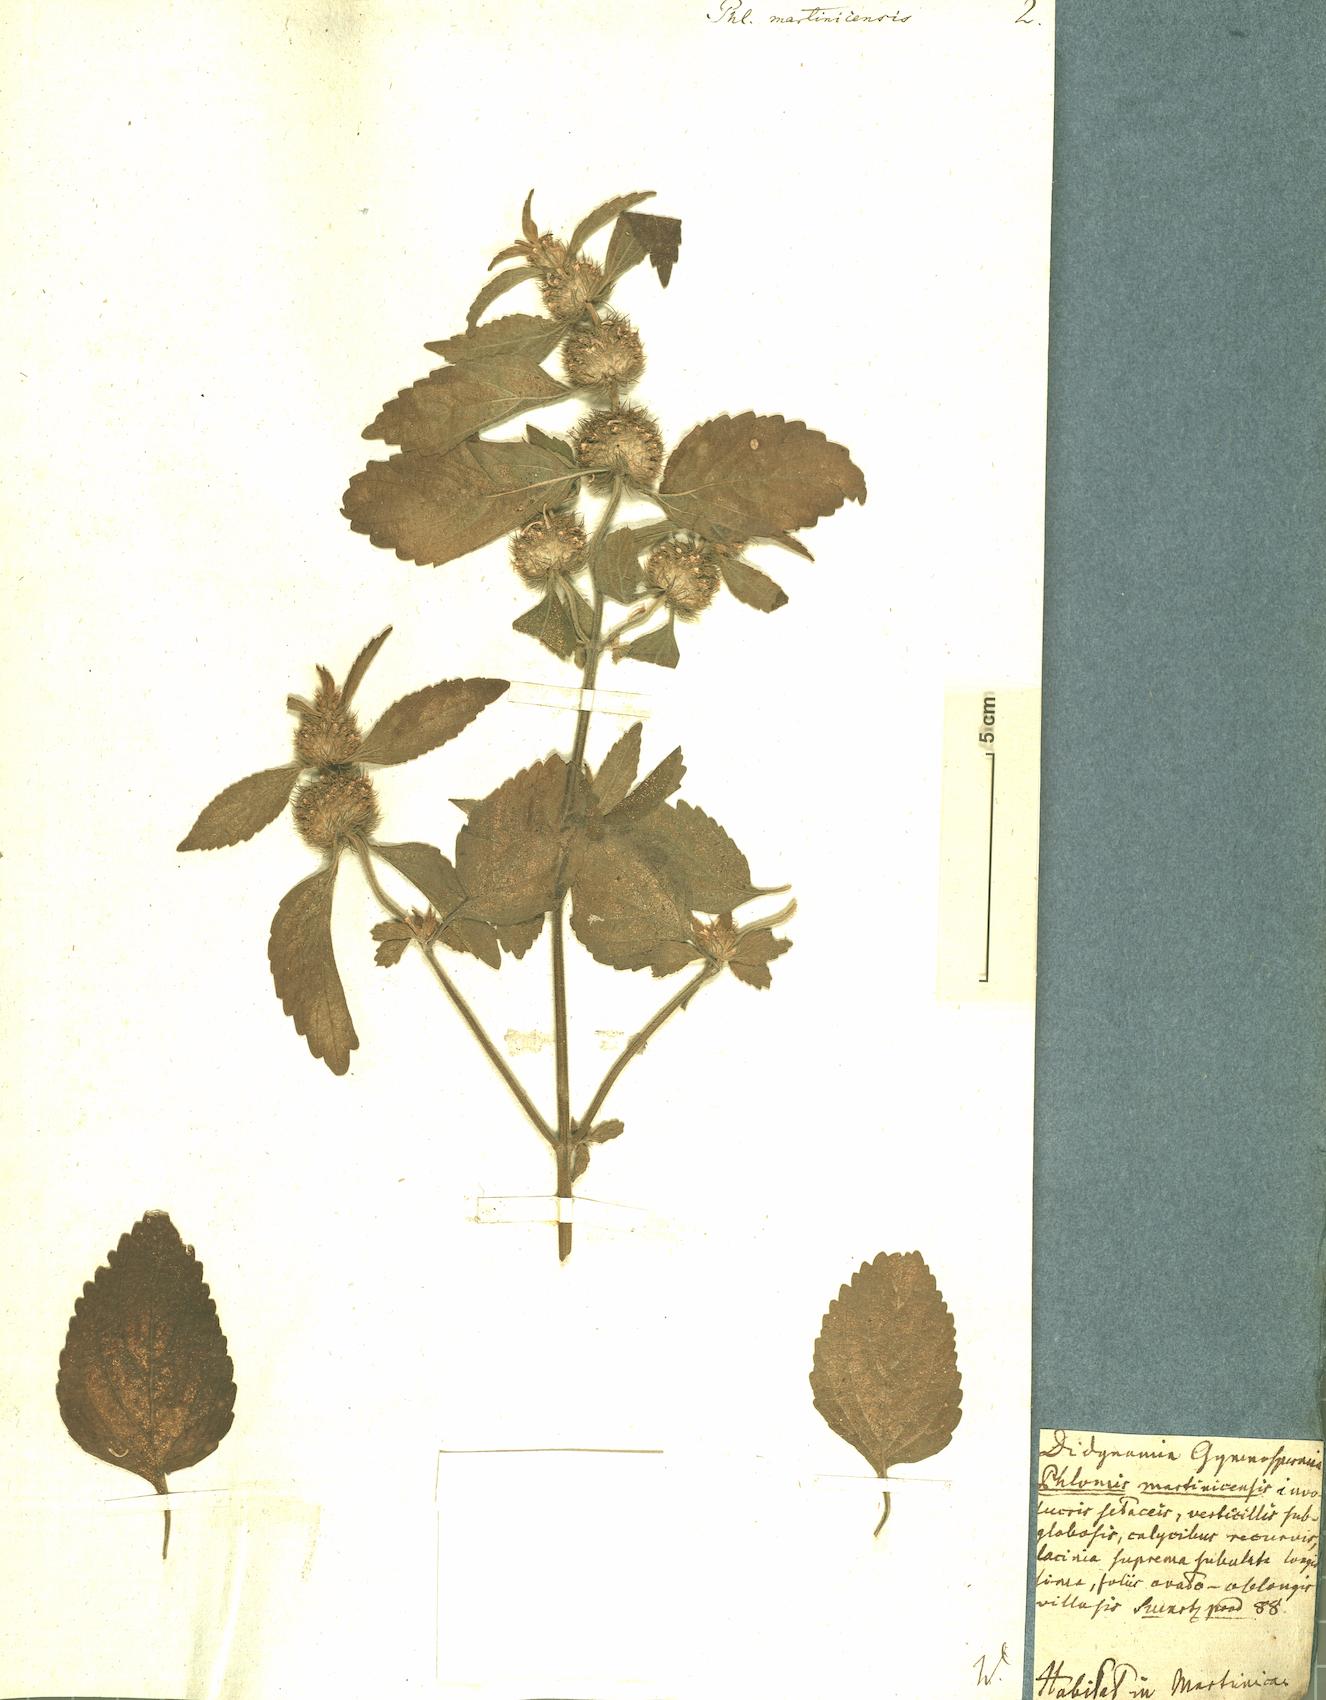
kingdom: Plantae
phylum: Tracheophyta
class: Magnoliopsida
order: Lamiales
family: Lamiaceae
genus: Leucas
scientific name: Leucas martinicensis
